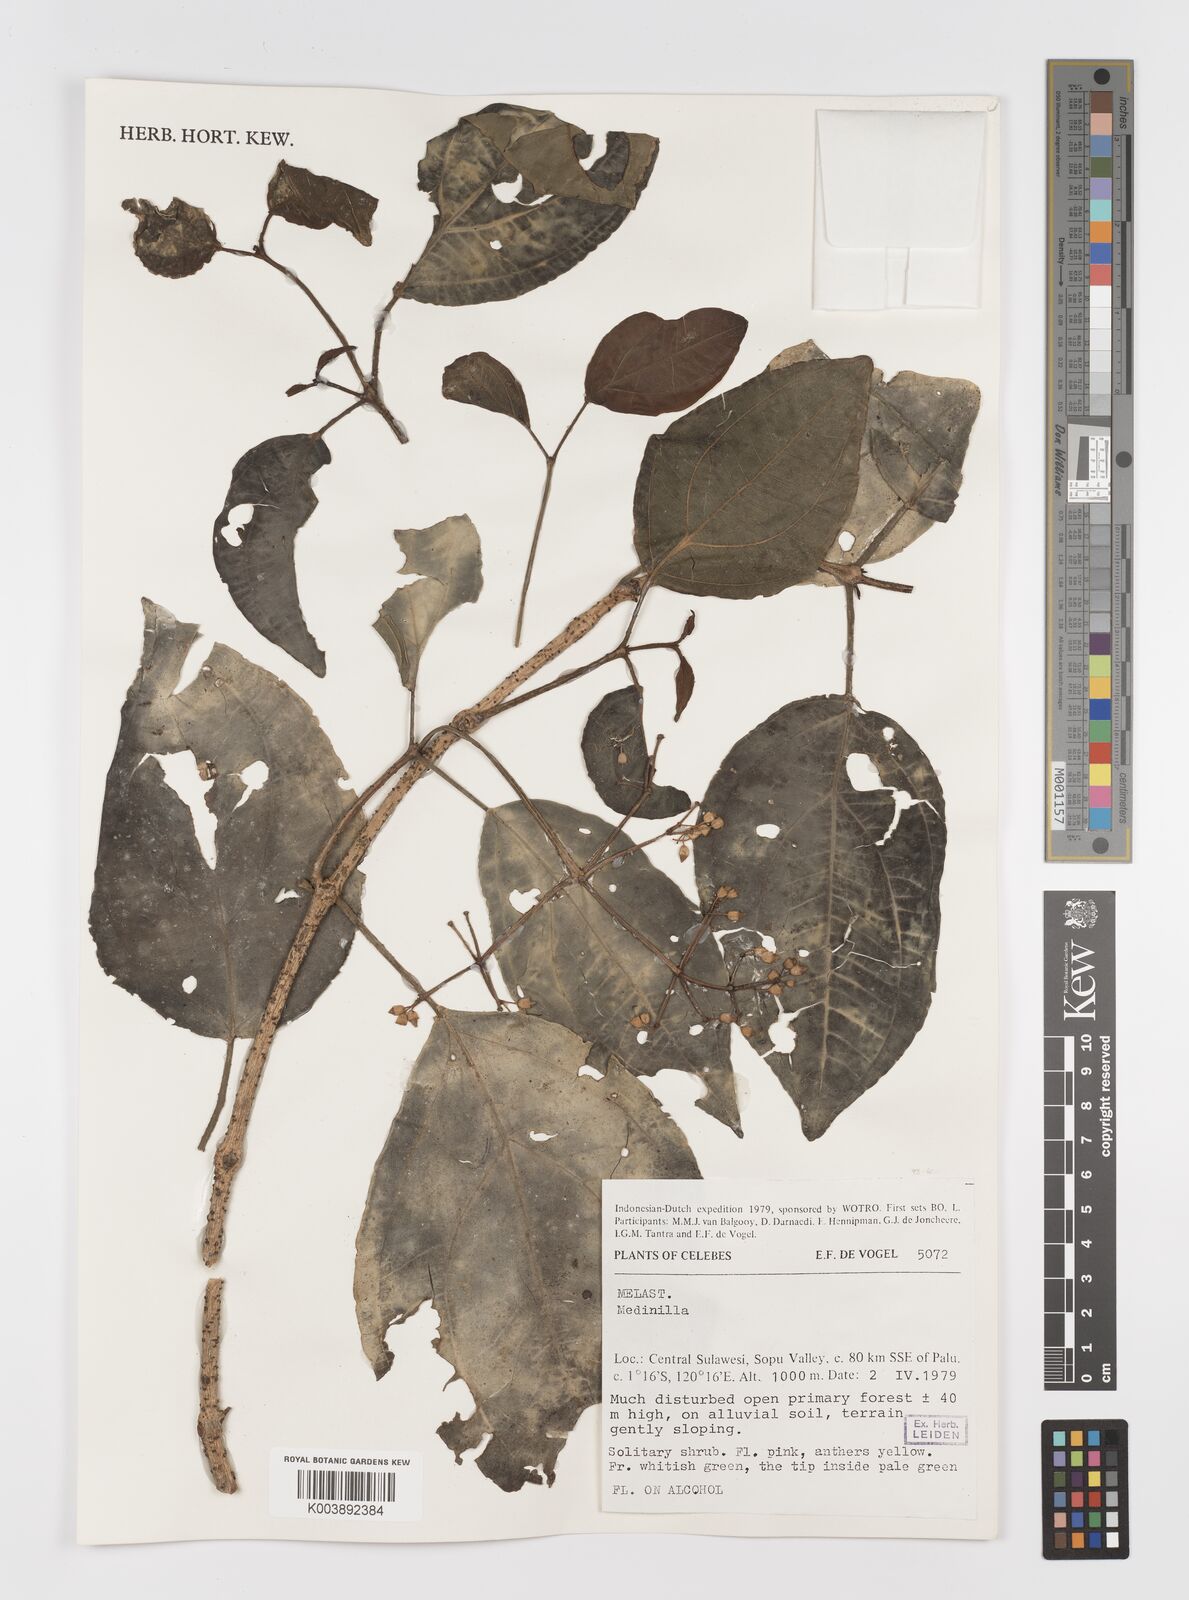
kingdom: Plantae
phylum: Tracheophyta
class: Magnoliopsida
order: Myrtales
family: Melastomataceae
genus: Medinilla
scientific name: Medinilla
